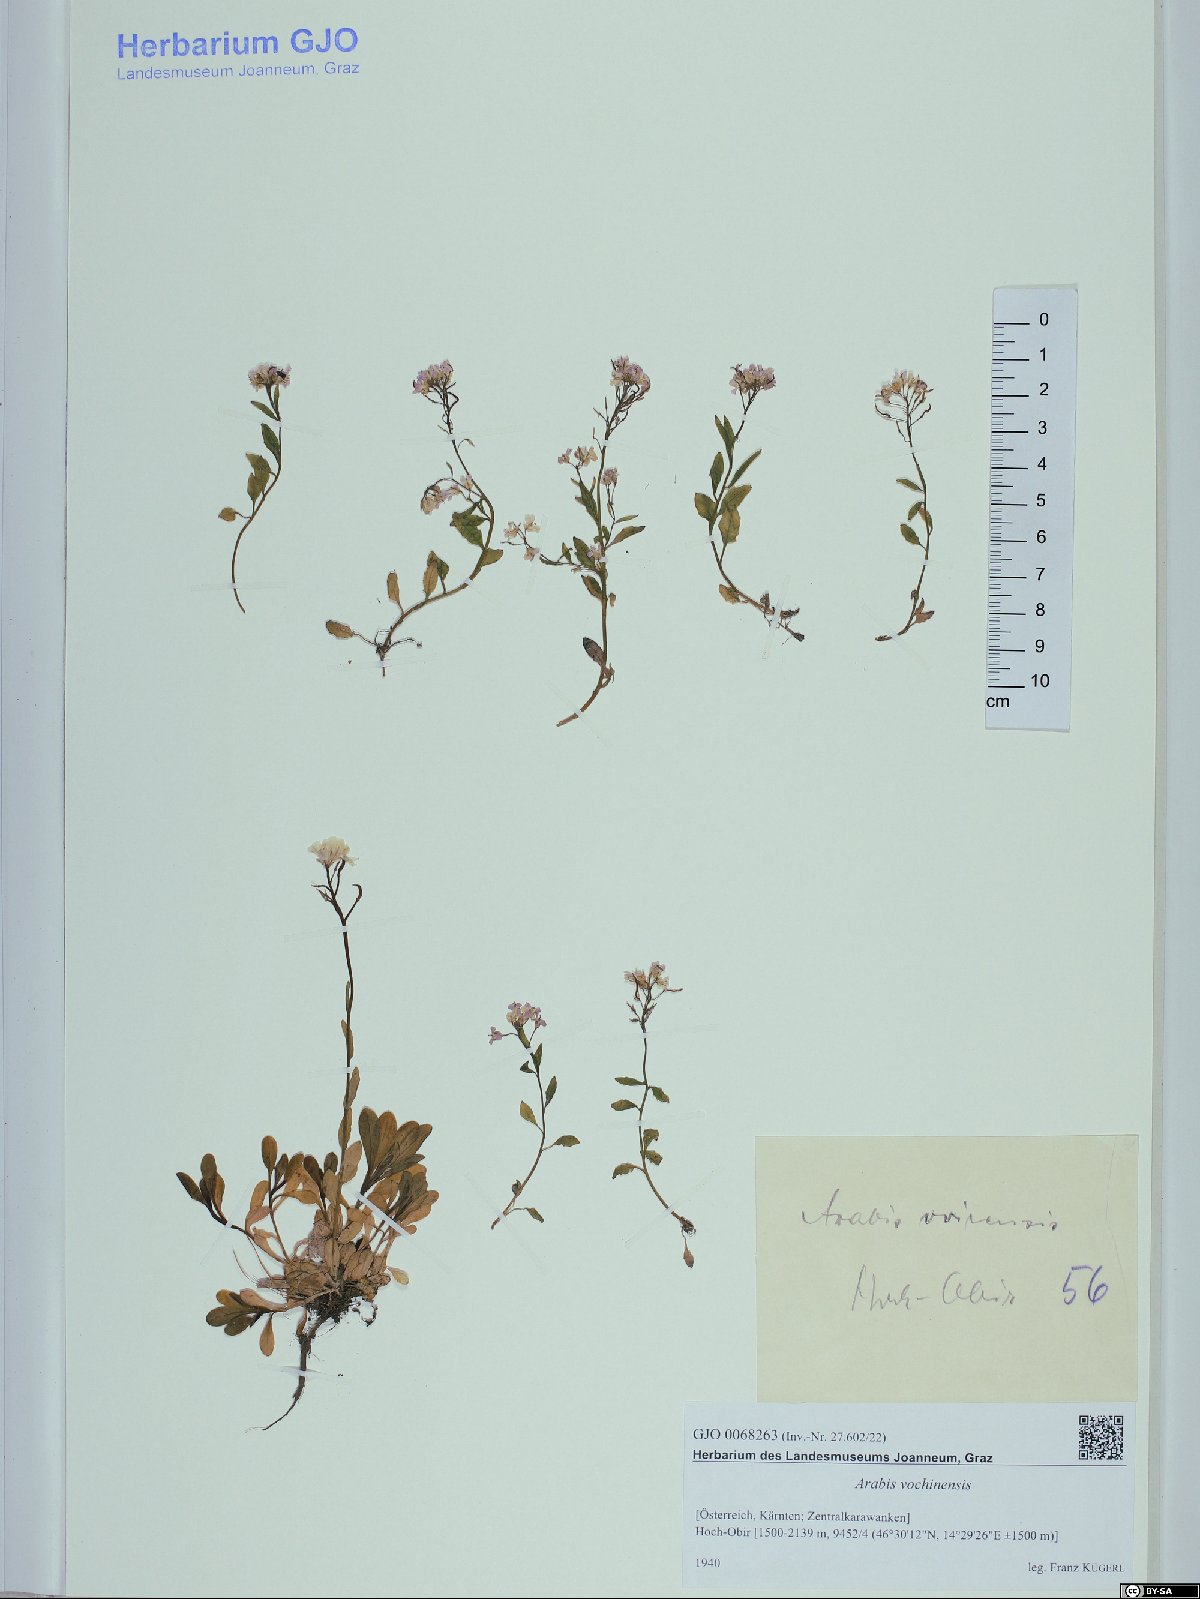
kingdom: Plantae
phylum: Tracheophyta
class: Magnoliopsida
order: Brassicales
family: Brassicaceae
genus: Arabis
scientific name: Arabis vochinensis
